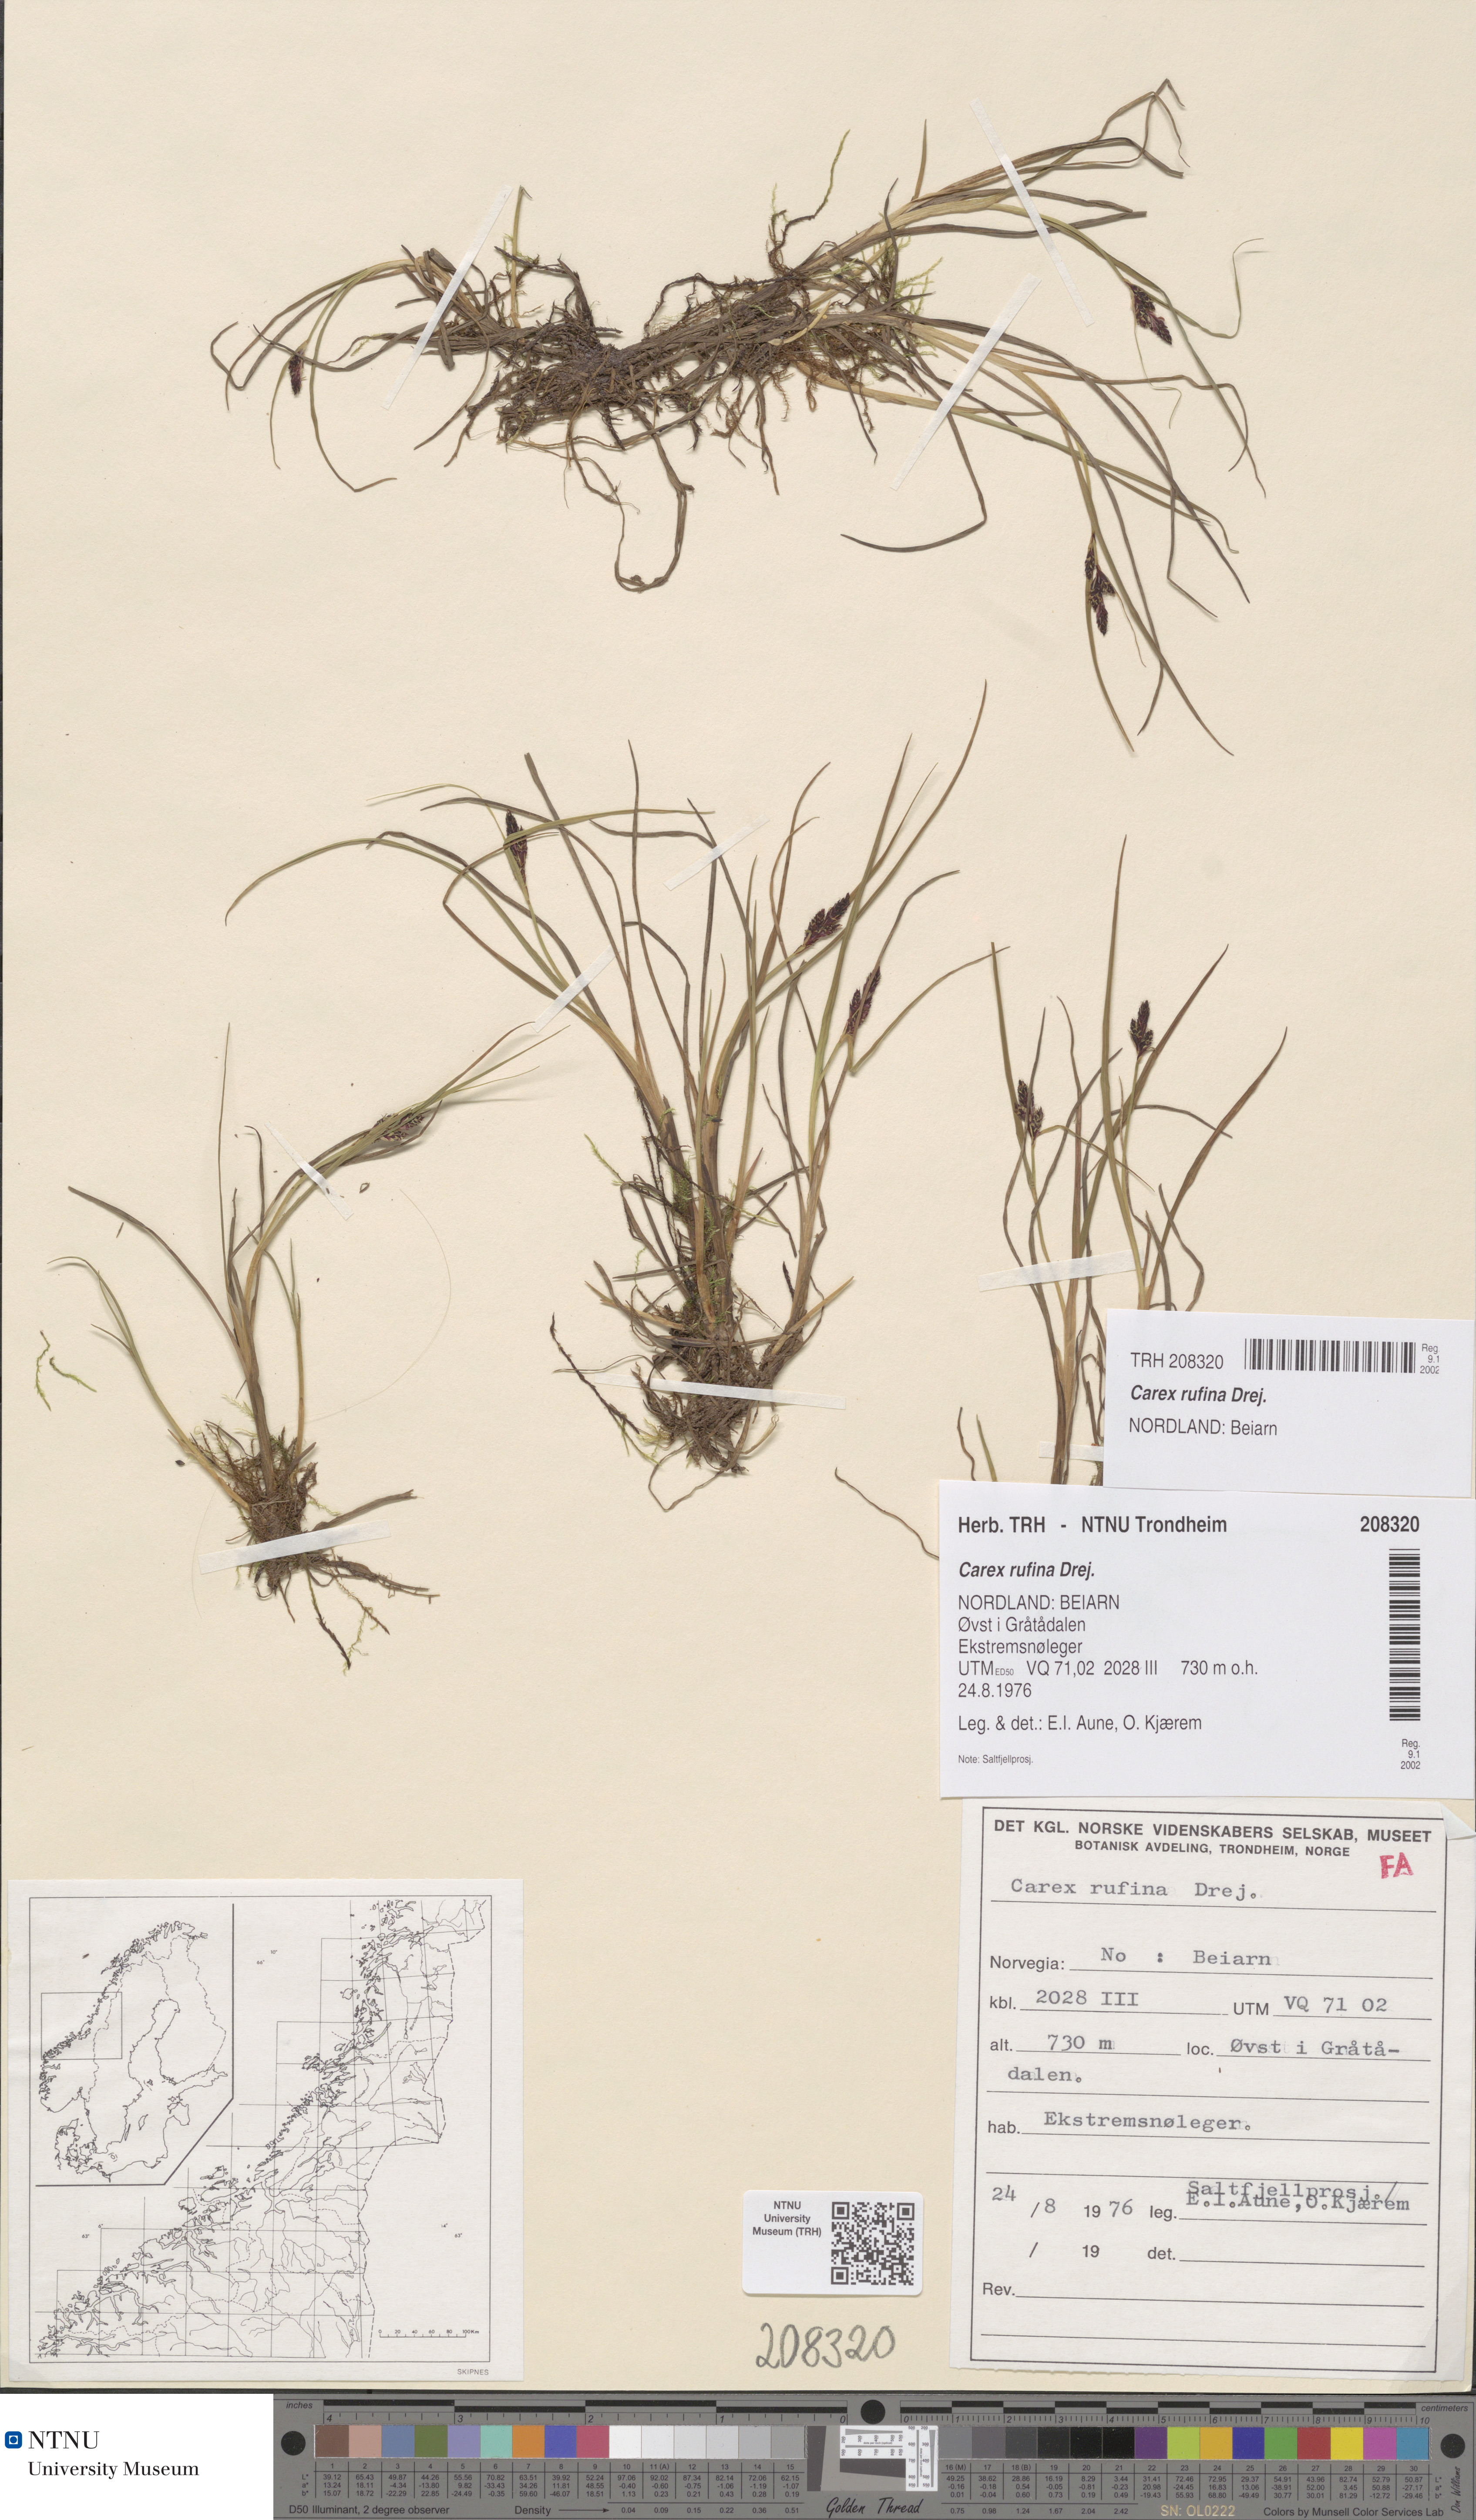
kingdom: Plantae
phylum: Tracheophyta
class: Liliopsida
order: Poales
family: Cyperaceae
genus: Carex
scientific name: Carex rufina
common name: Reddish sedge
